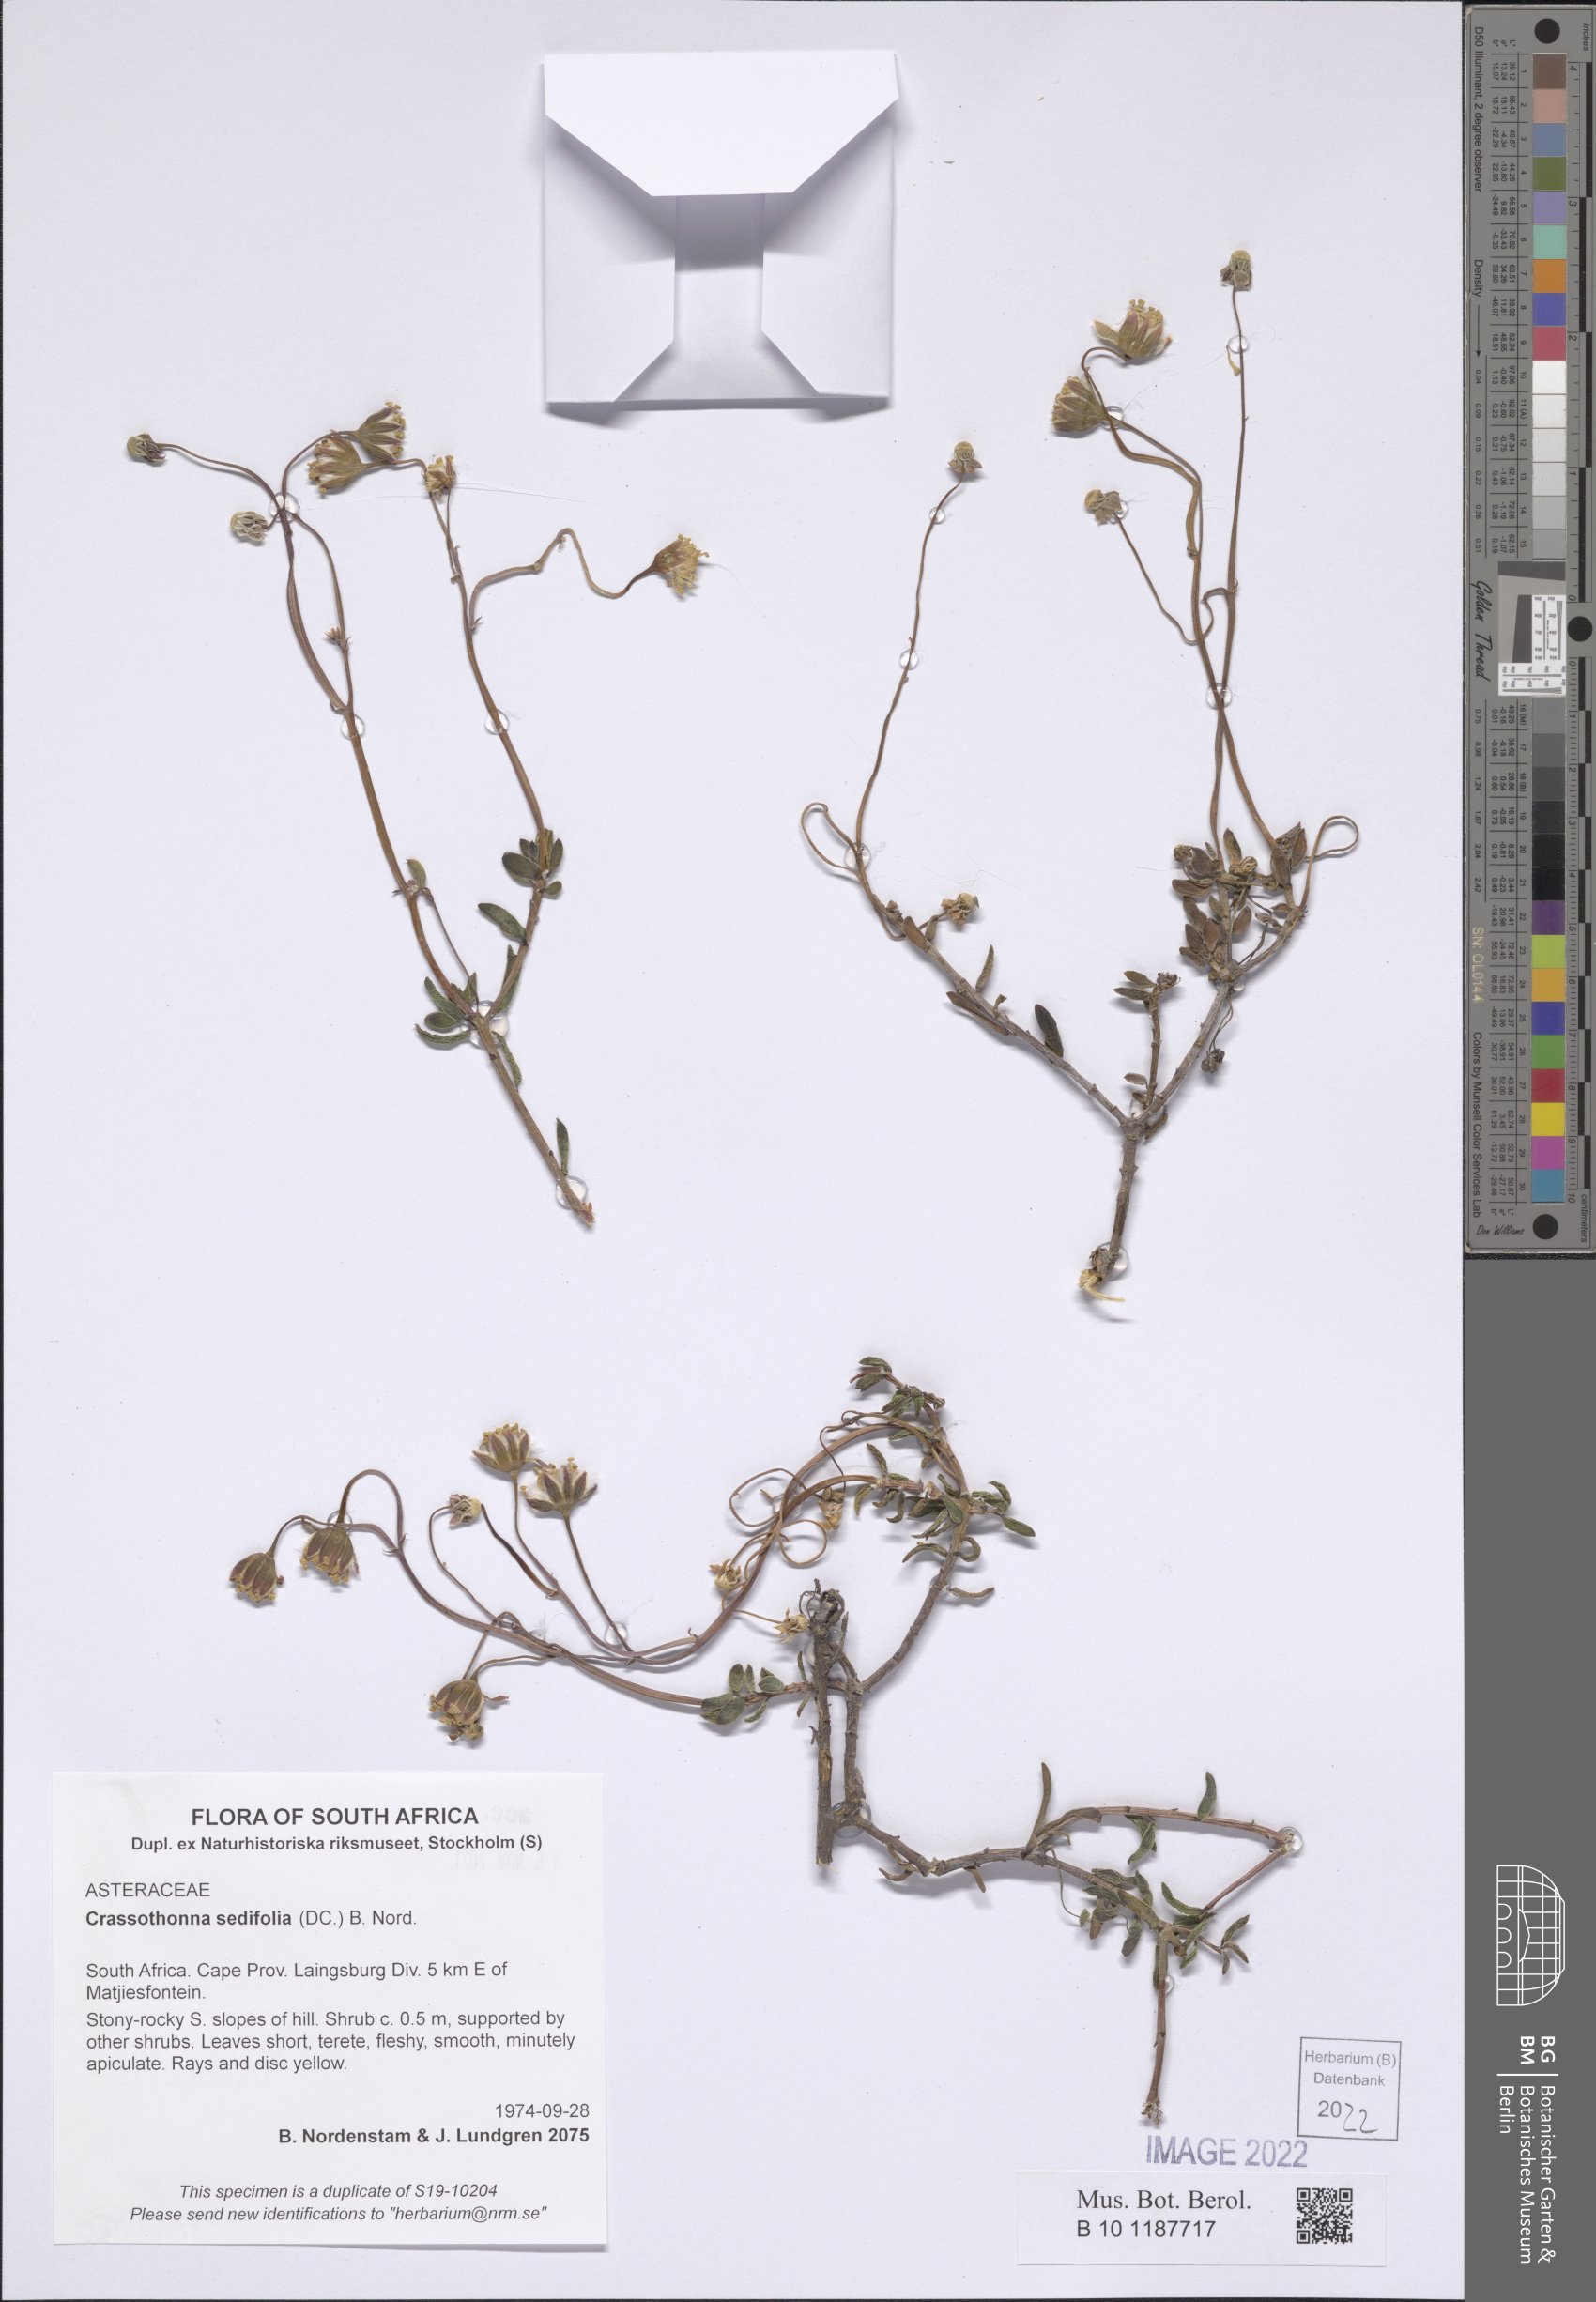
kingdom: Plantae
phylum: Tracheophyta
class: Magnoliopsida
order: Asterales
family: Asteraceae
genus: Crassothonna
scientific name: Crassothonna sedifolia
